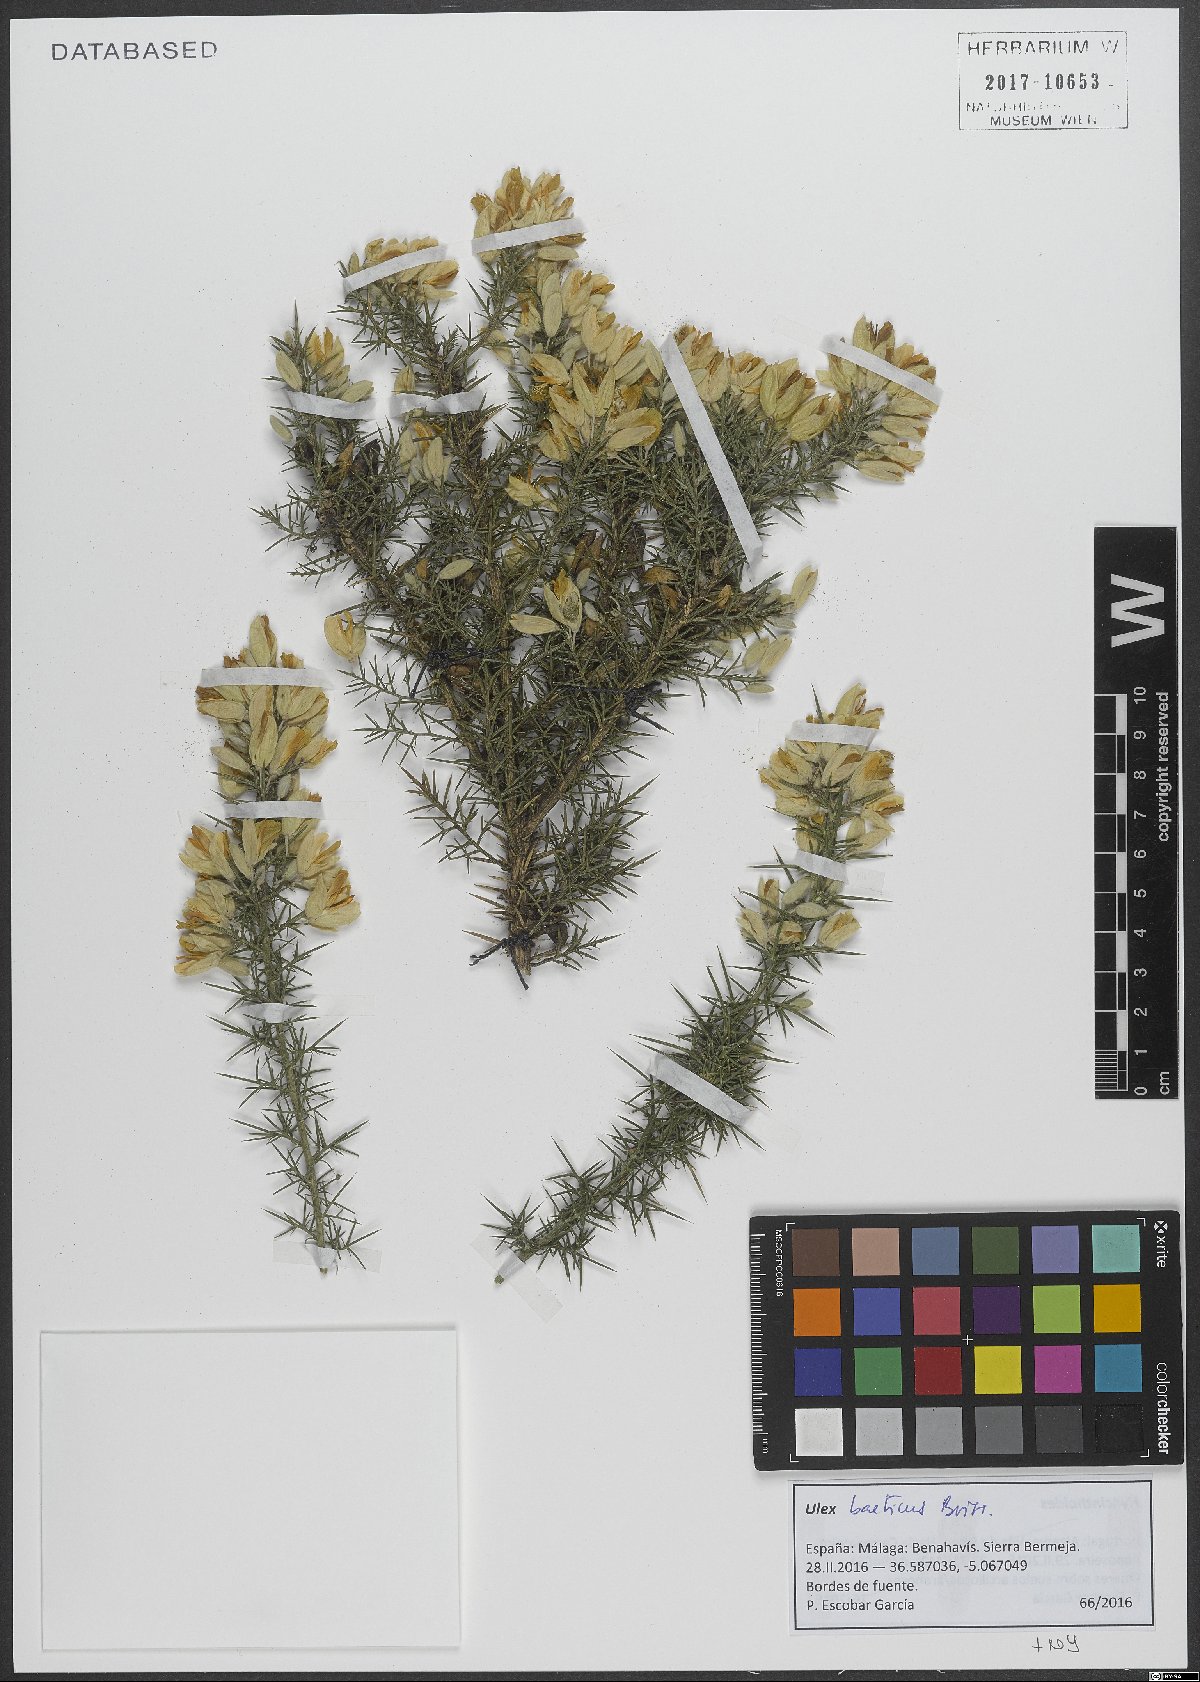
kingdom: Plantae
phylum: Tracheophyta
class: Magnoliopsida
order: Fabales
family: Fabaceae
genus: Ulex
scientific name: Ulex baeticus
